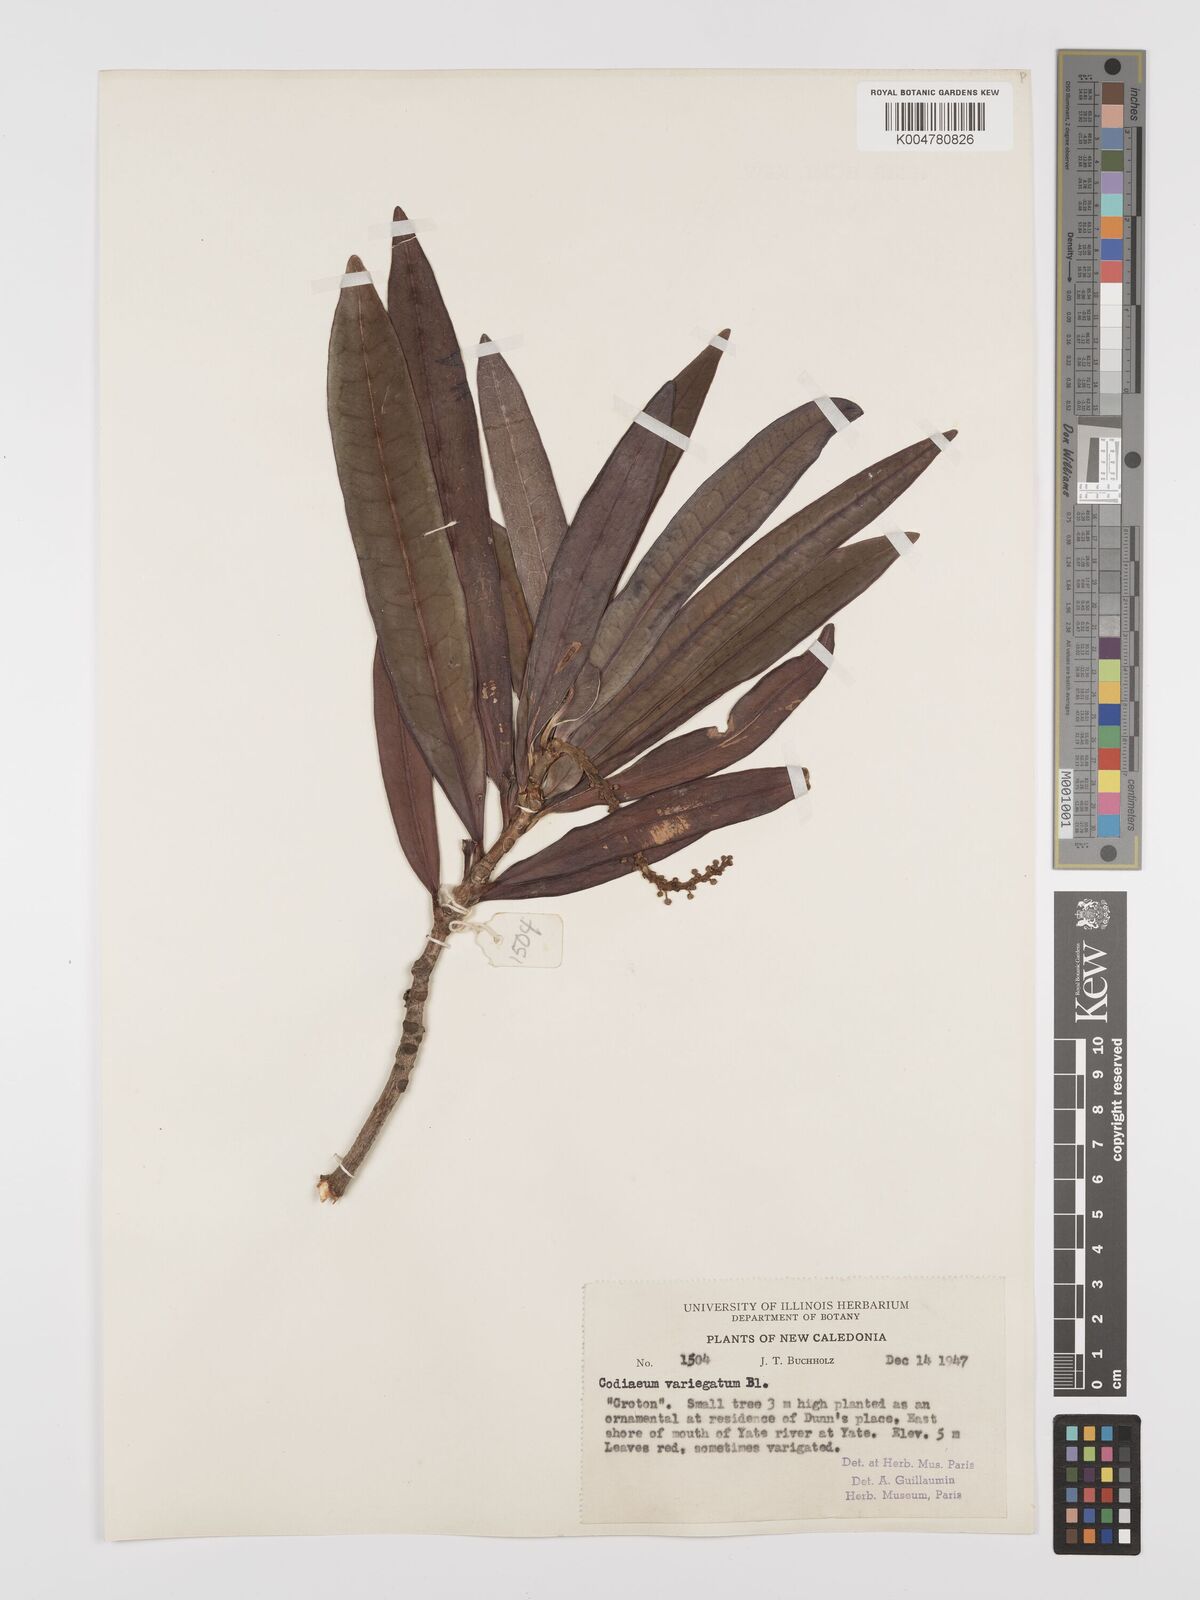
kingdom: Plantae
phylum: Tracheophyta
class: Magnoliopsida
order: Malpighiales
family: Euphorbiaceae
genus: Codiaeum
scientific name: Codiaeum variegatum
